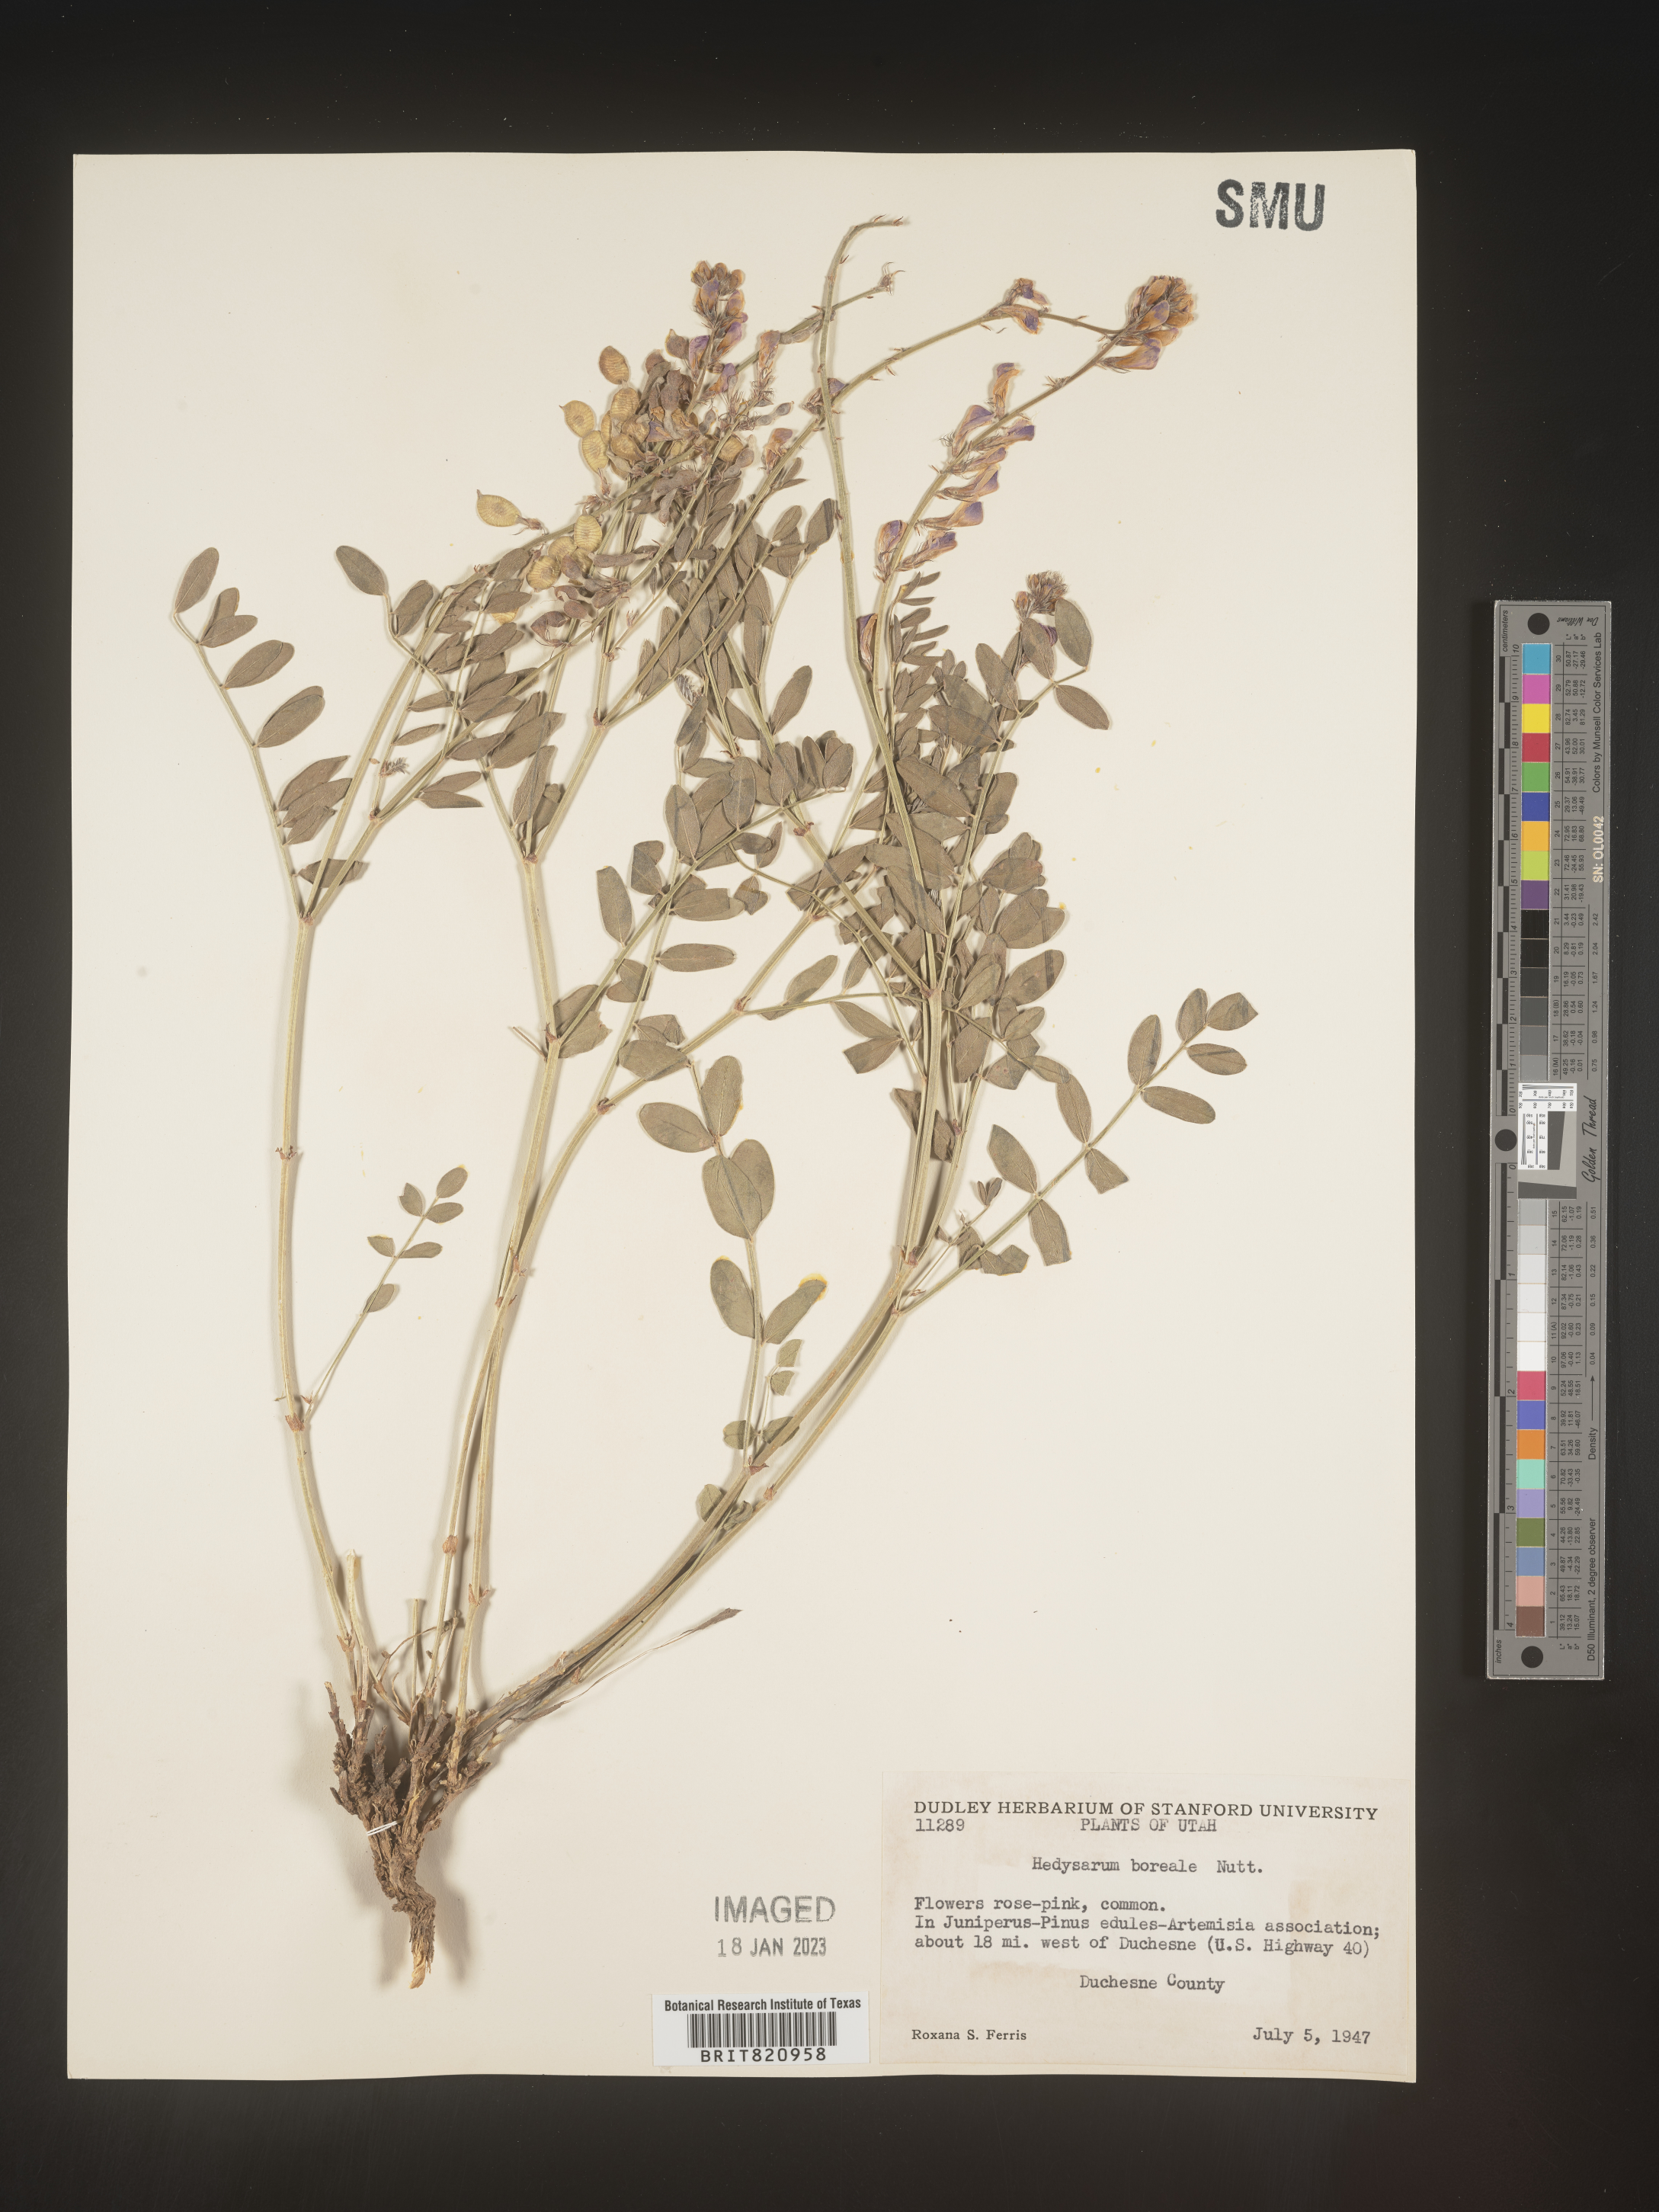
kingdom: Plantae
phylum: Tracheophyta
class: Magnoliopsida
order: Fabales
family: Fabaceae
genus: Hedysarum
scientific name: Hedysarum boreale
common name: Northern sweet-vetch
